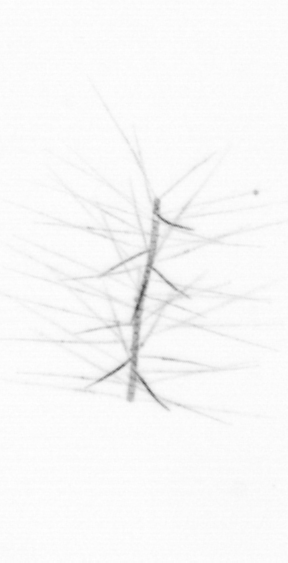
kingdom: Chromista
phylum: Ochrophyta
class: Bacillariophyceae
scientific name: Bacillariophyceae
